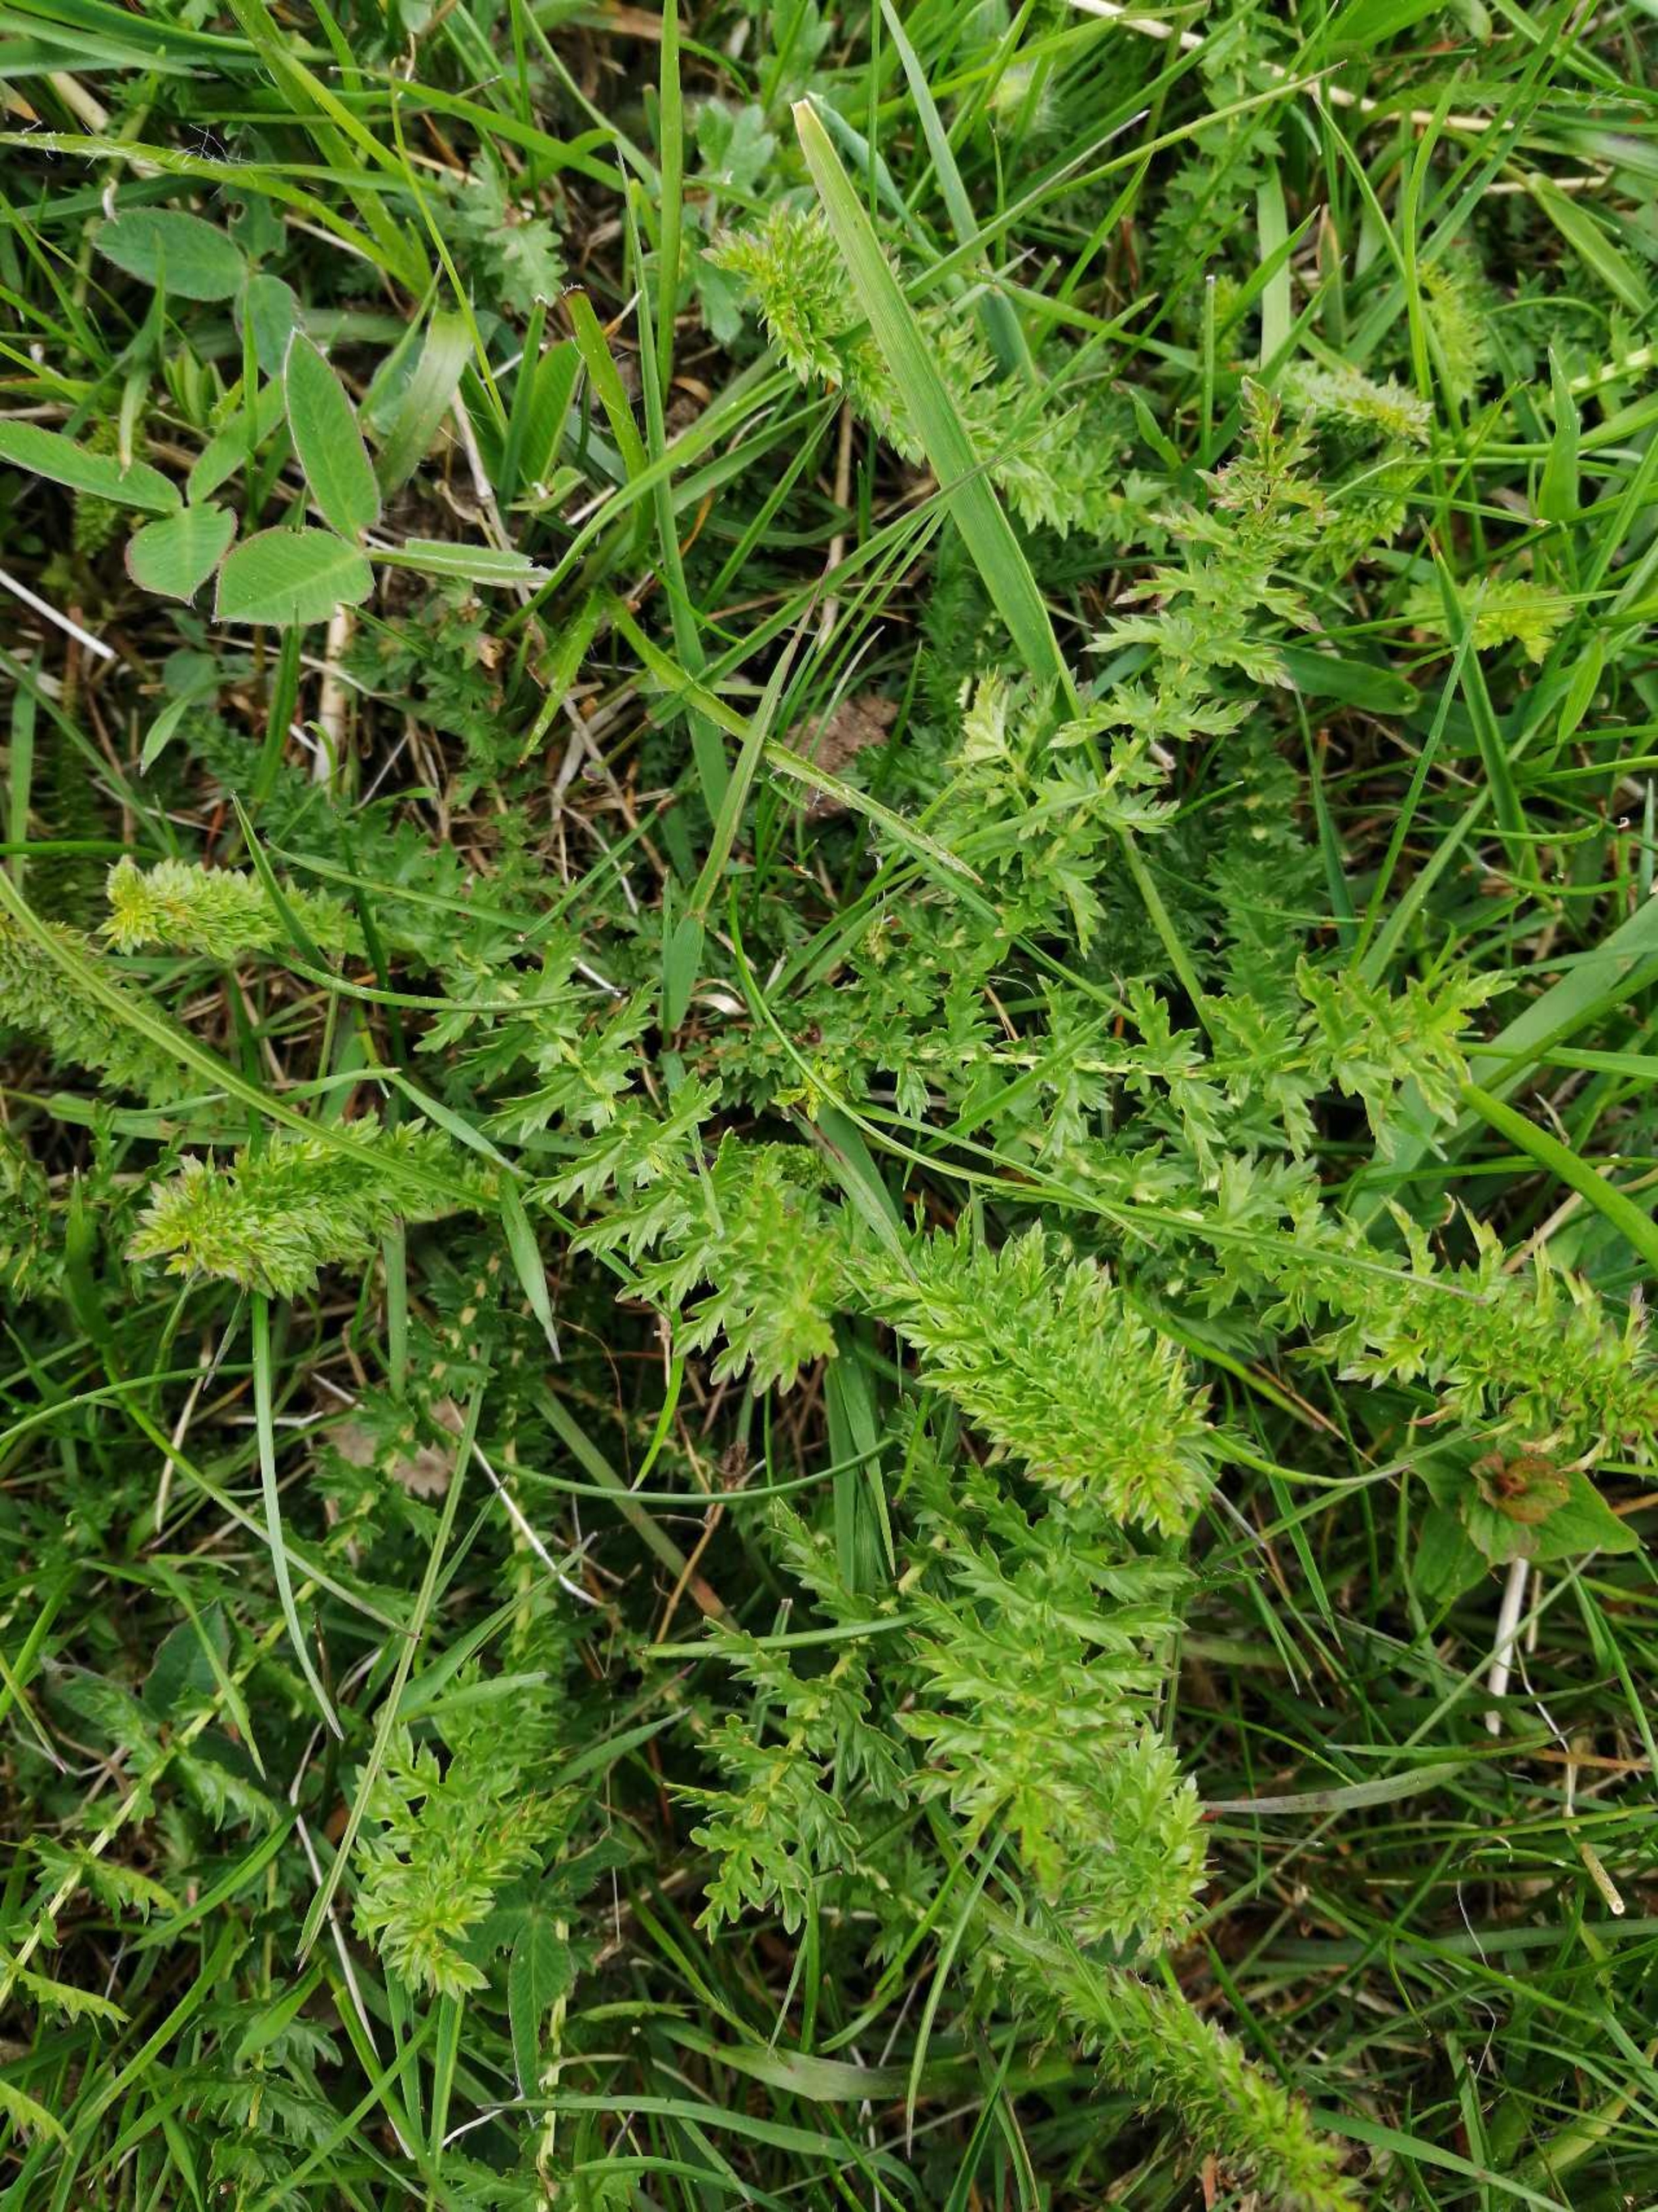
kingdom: Plantae
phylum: Tracheophyta
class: Magnoliopsida
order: Rosales
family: Rosaceae
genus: Filipendula
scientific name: Filipendula vulgaris
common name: Knoldet mjødurt
